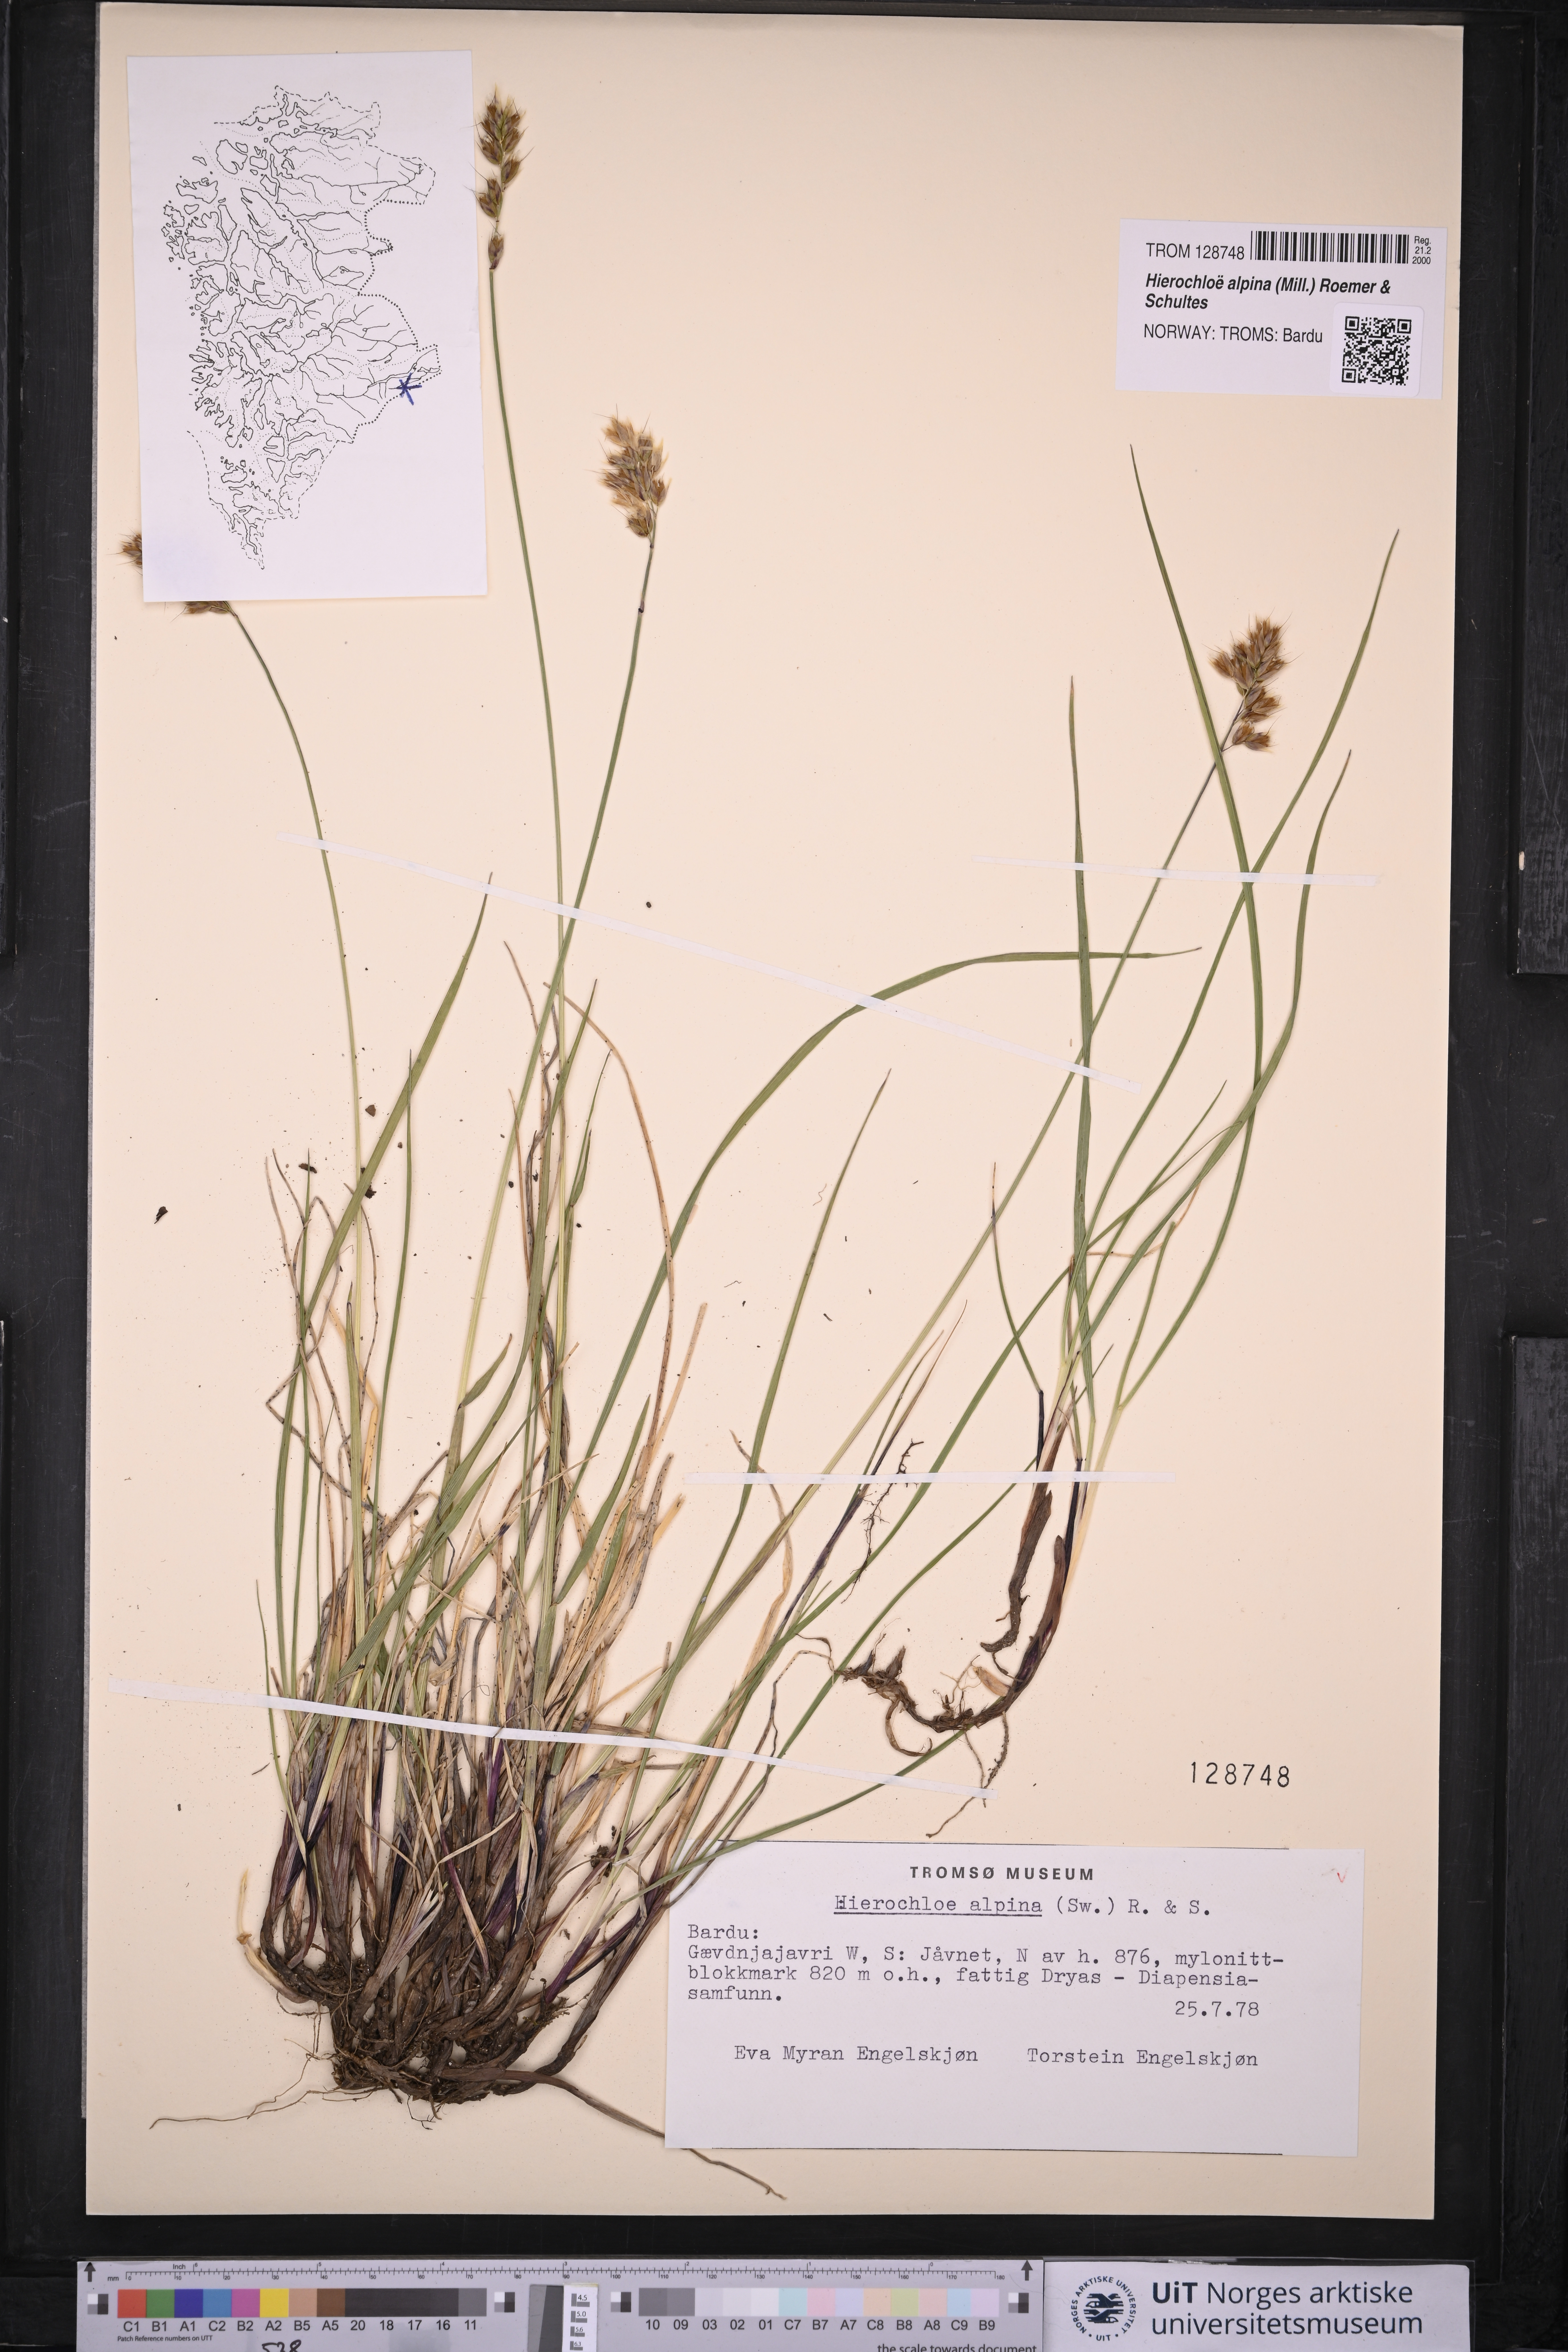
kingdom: Plantae
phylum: Tracheophyta
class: Liliopsida
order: Poales
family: Poaceae
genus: Anthoxanthum
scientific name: Anthoxanthum monticola
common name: Alpine sweetgrass
